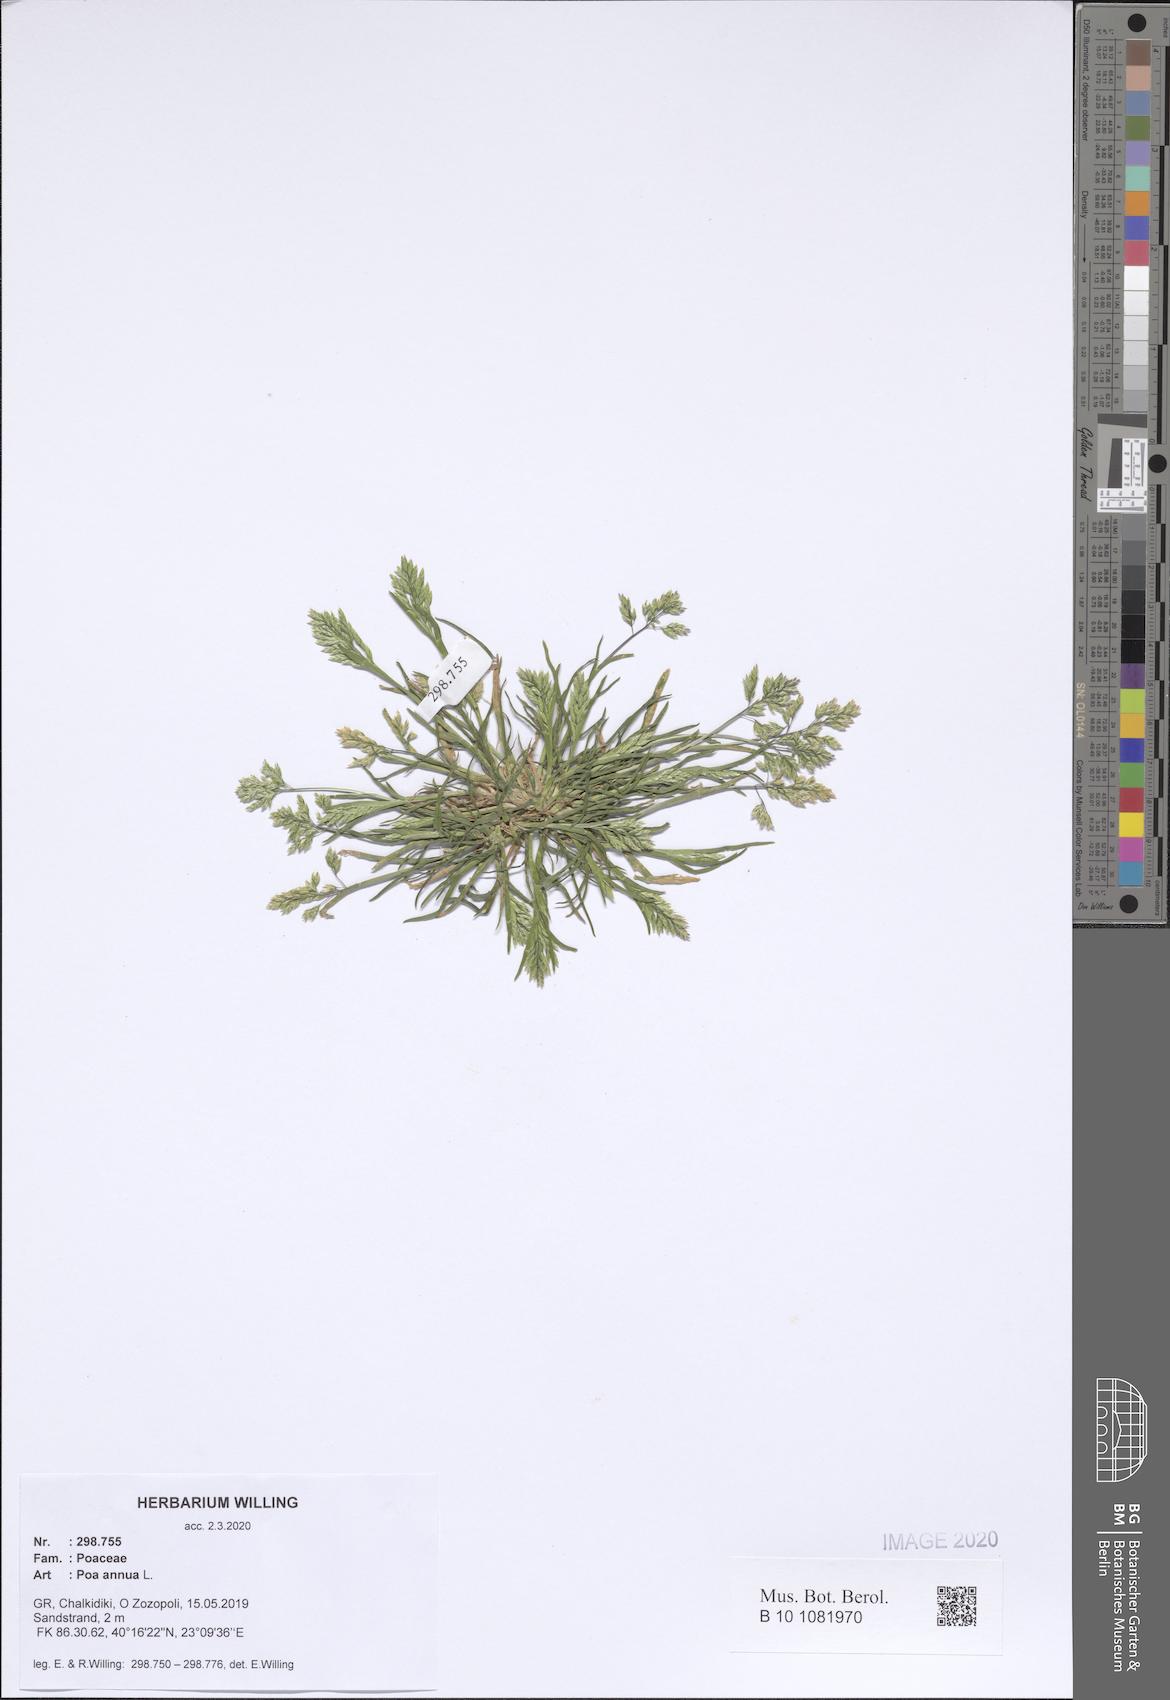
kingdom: Plantae
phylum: Tracheophyta
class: Liliopsida
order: Poales
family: Poaceae
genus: Poa
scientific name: Poa annua
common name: Annual bluegrass
